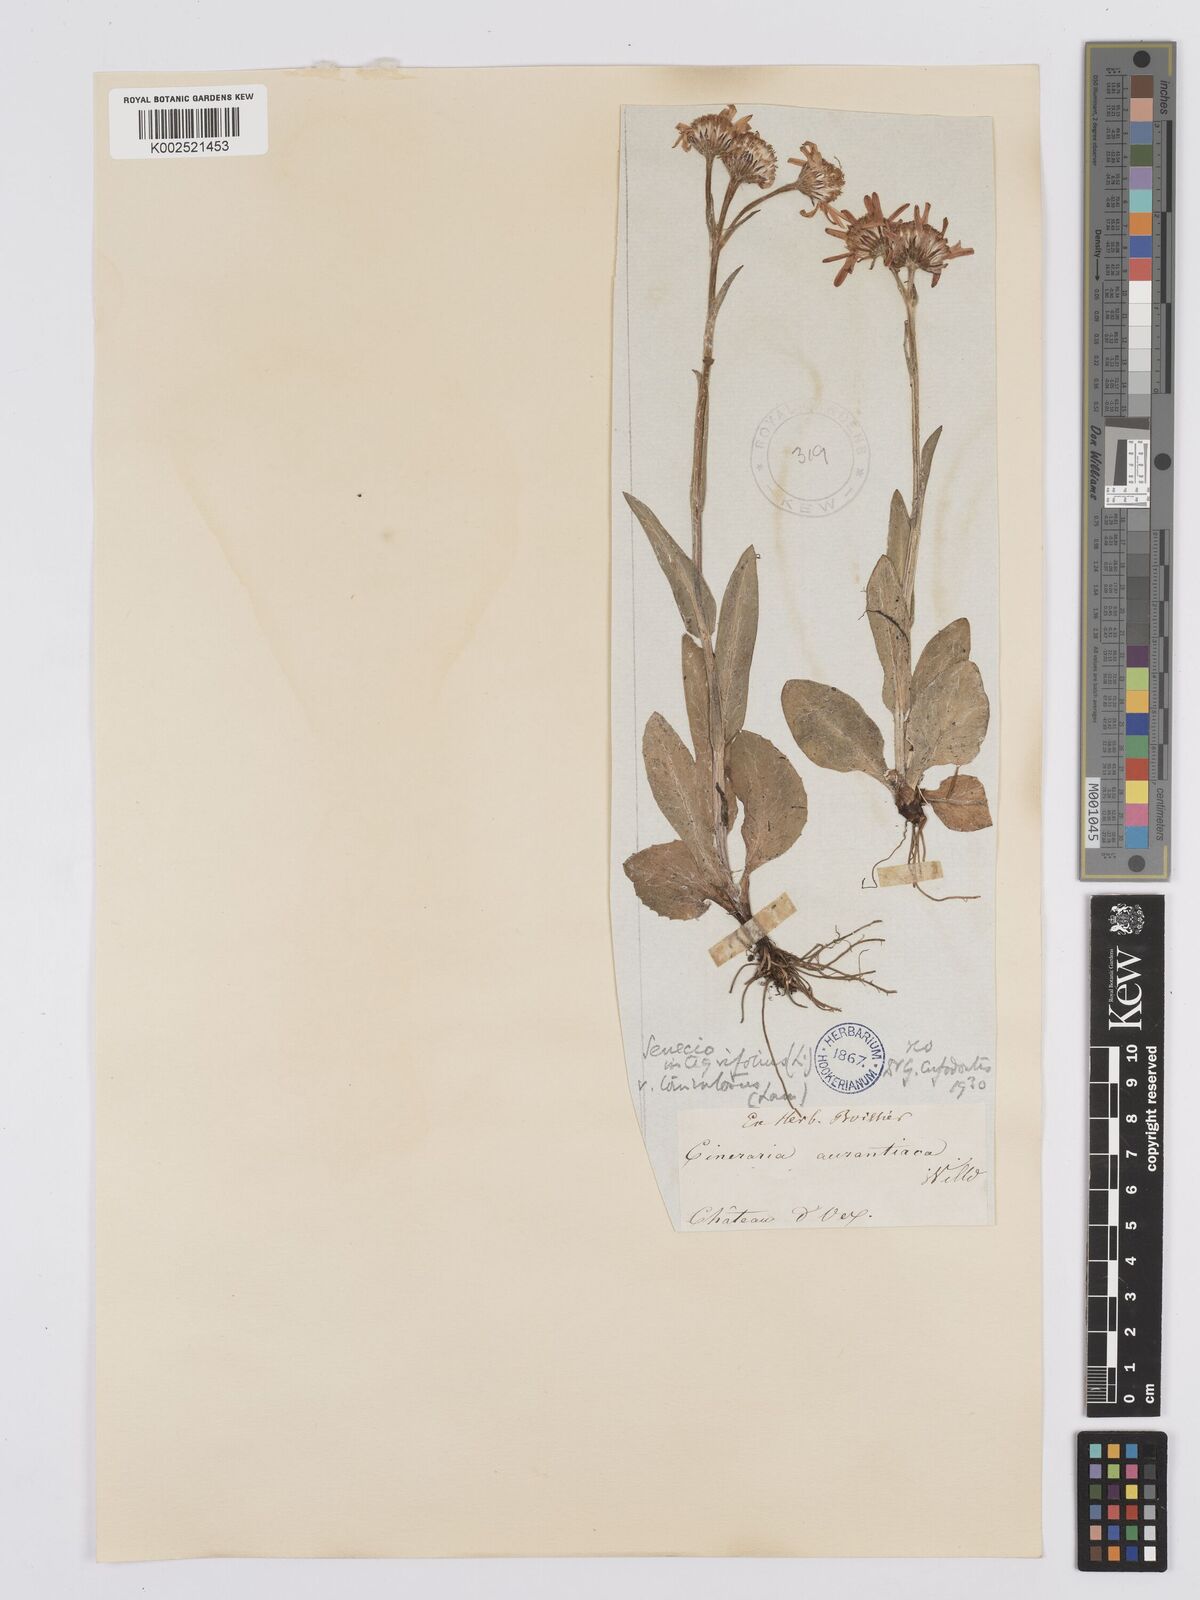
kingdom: Plantae
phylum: Tracheophyta
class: Magnoliopsida
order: Asterales
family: Asteraceae
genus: Tephroseris
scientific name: Tephroseris integrifolia
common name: Field fleawort
